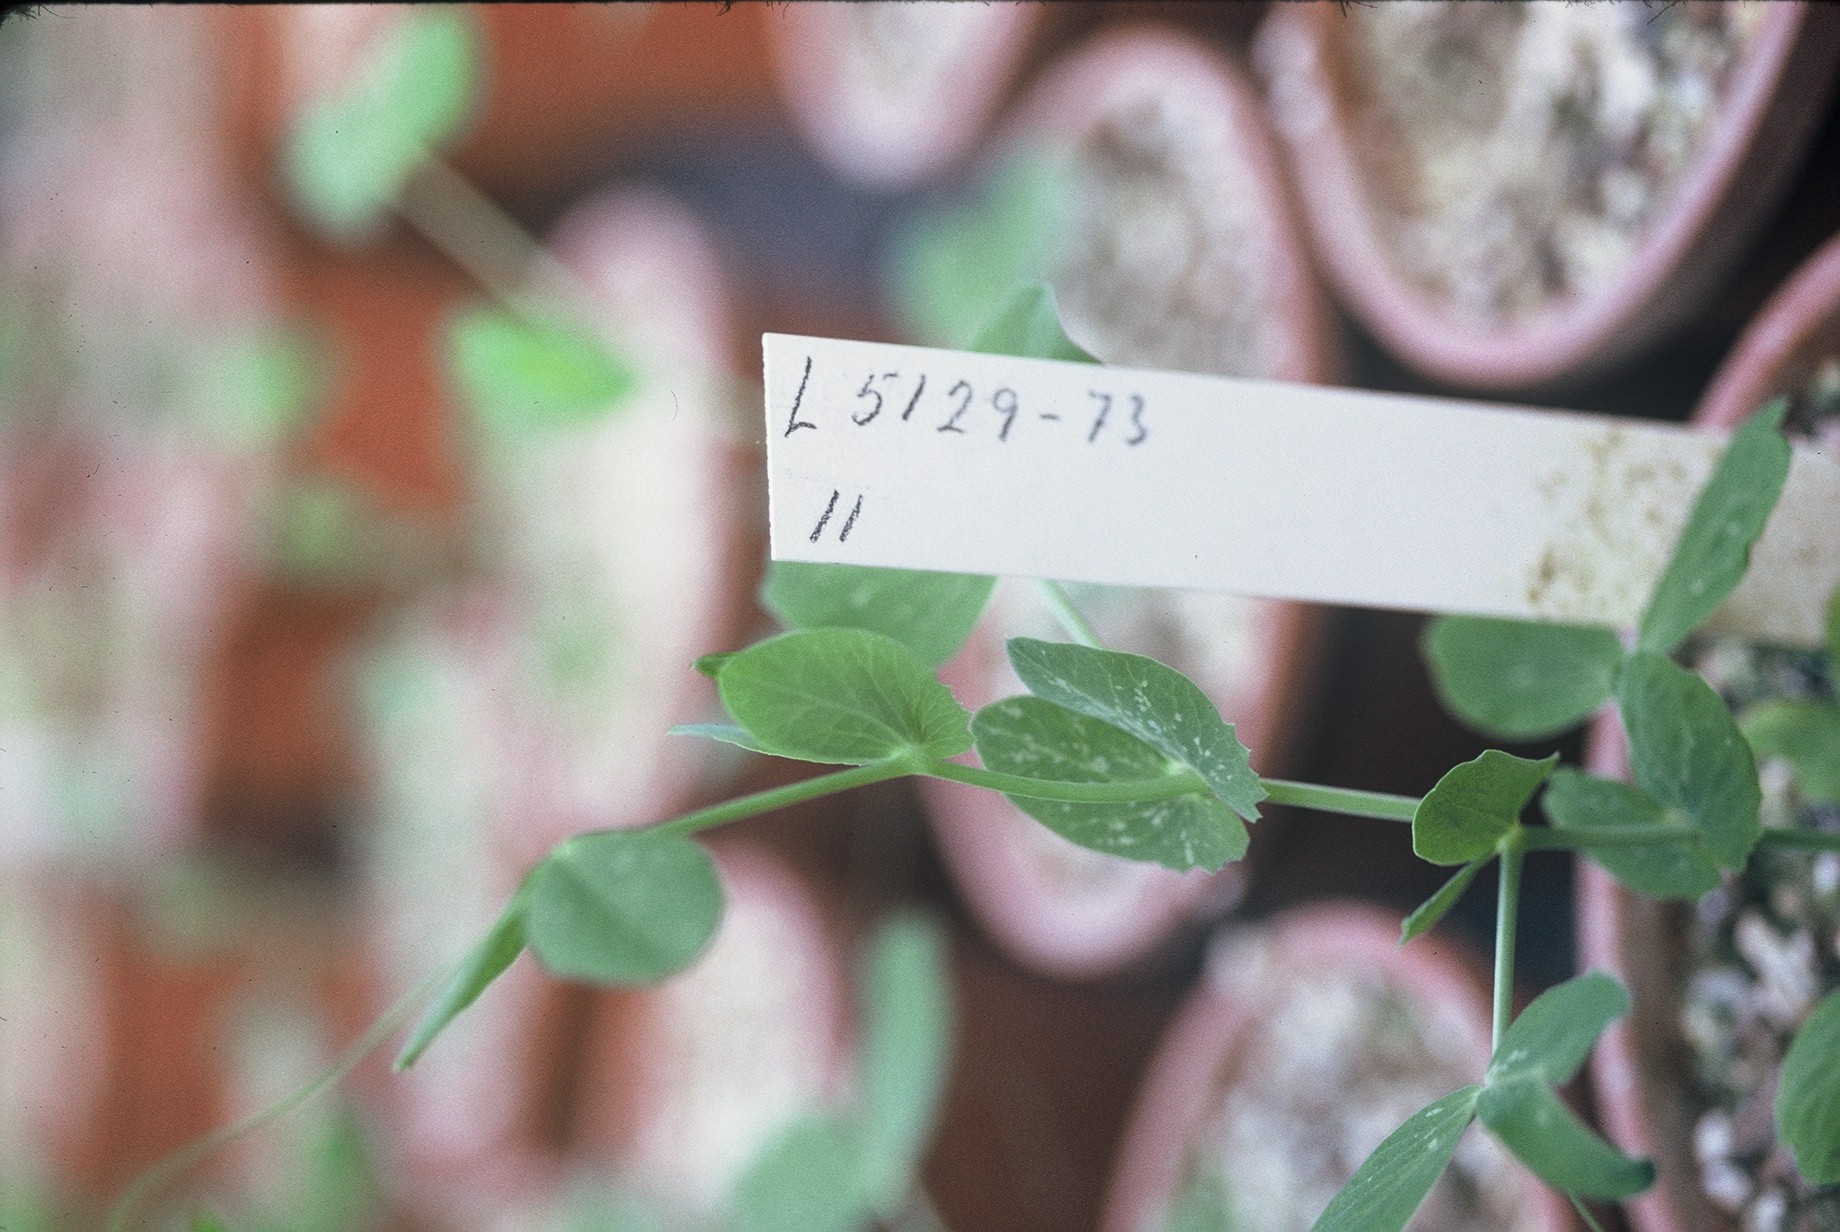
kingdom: Plantae
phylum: Tracheophyta
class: Magnoliopsida
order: Fabales
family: Fabaceae
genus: Lathyrus
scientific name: Lathyrus oleraceus
